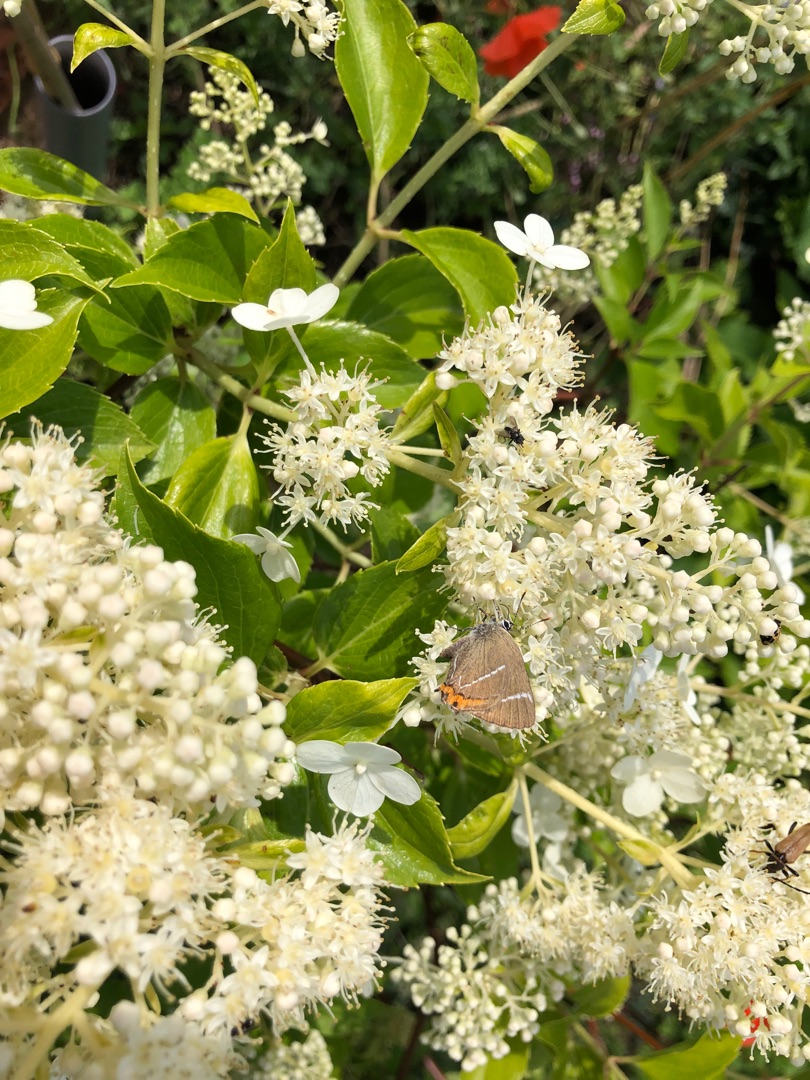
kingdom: Animalia
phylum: Arthropoda
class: Insecta
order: Lepidoptera
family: Lycaenidae
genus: Satyrium
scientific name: Satyrium w-album
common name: Det hvide W
